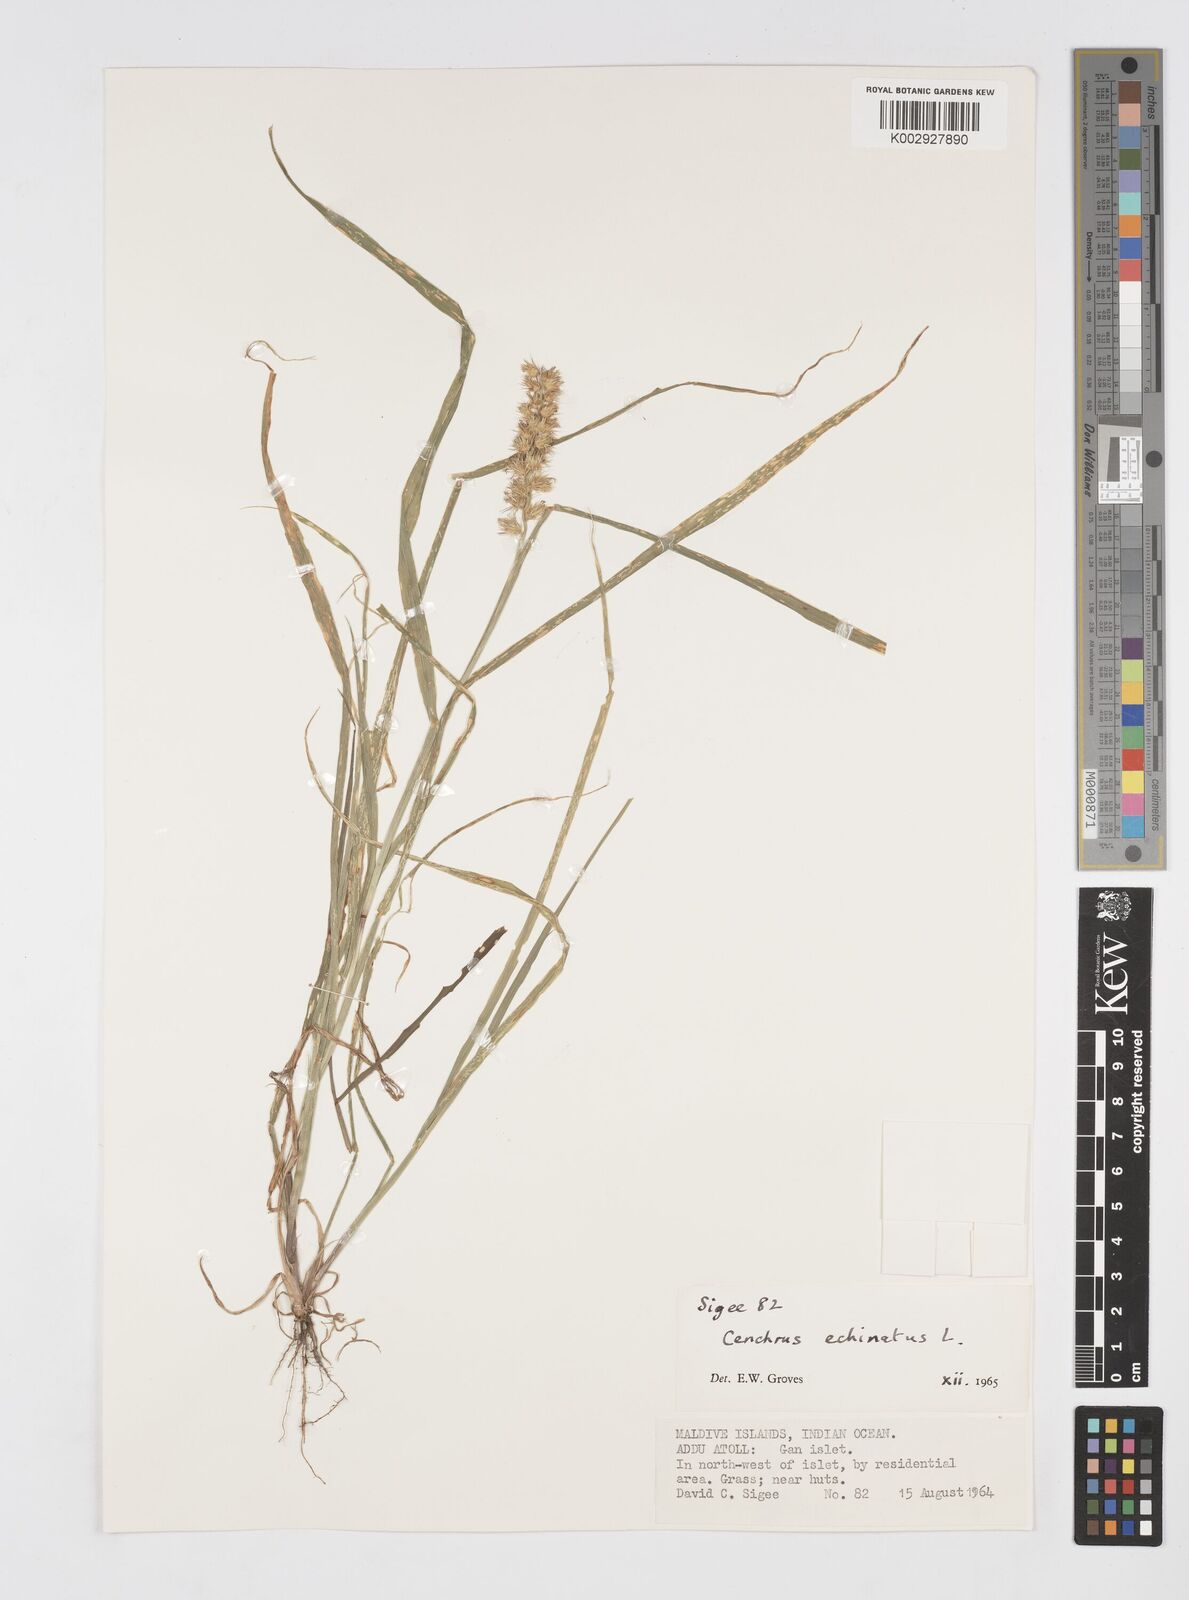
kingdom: Plantae
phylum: Tracheophyta
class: Liliopsida
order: Poales
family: Poaceae
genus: Cenchrus
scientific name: Cenchrus echinatus
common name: Southern sandbur
